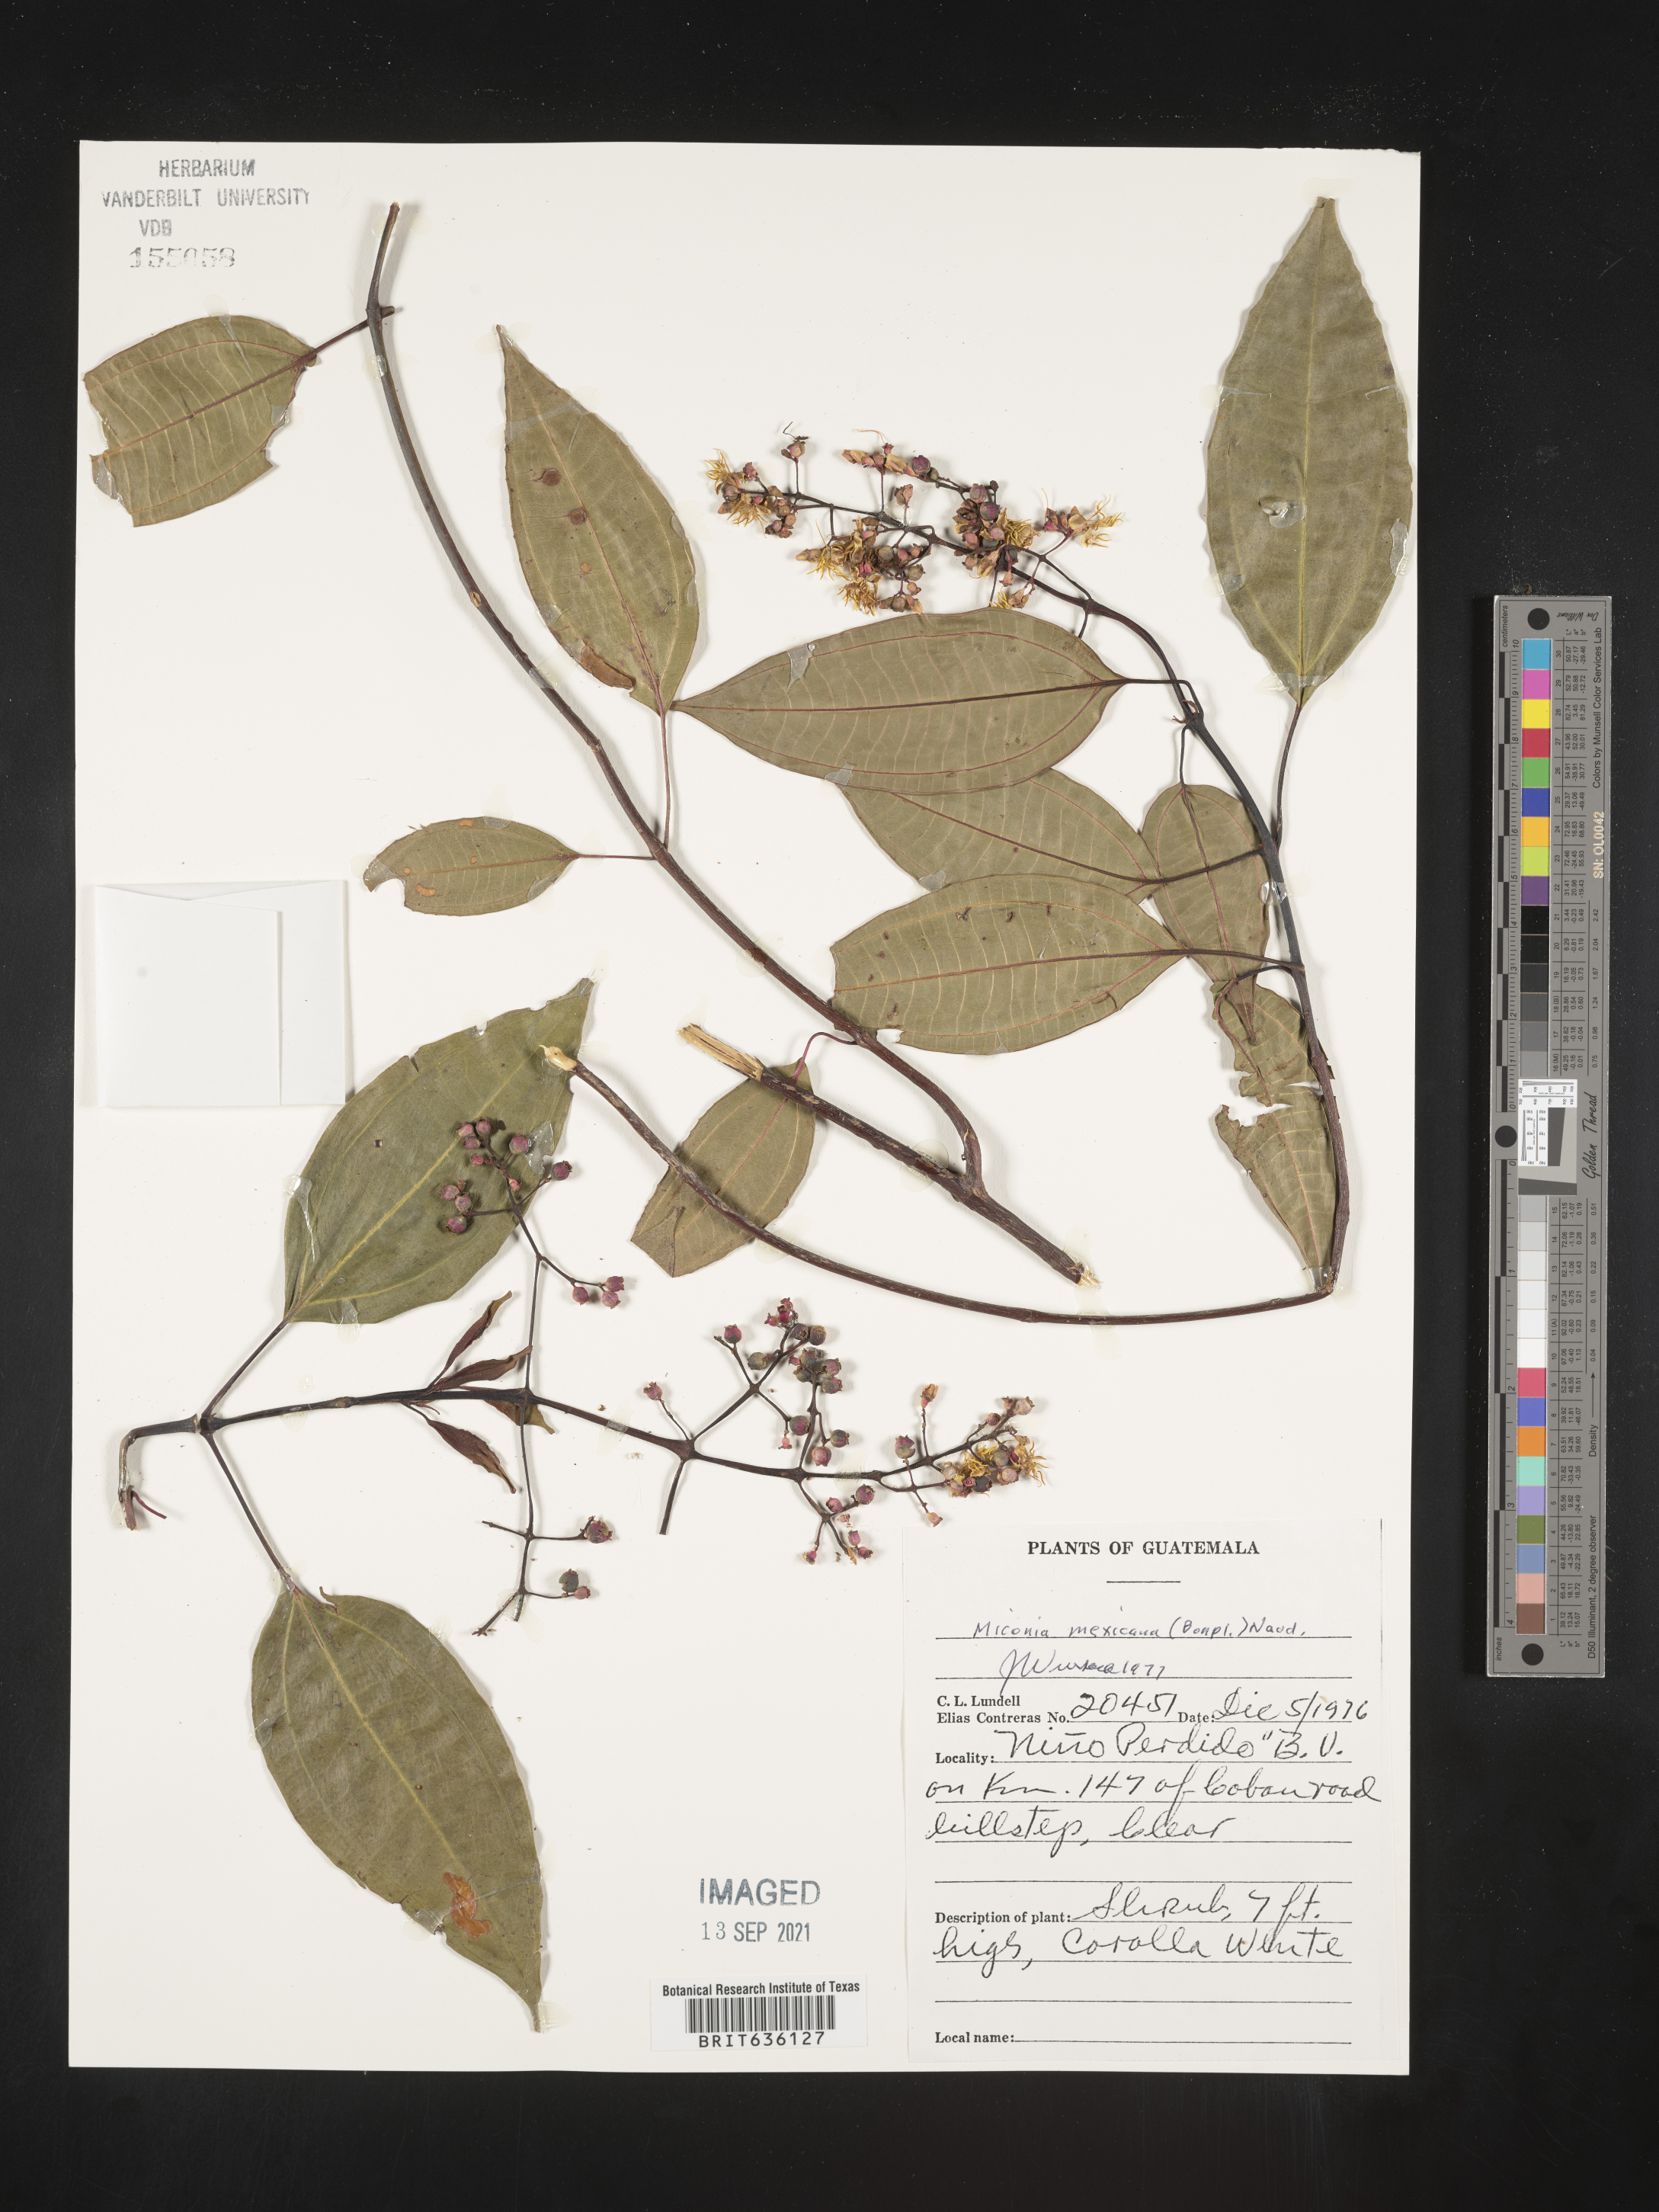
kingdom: Plantae
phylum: Tracheophyta
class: Magnoliopsida
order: Myrtales
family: Melastomataceae
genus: Miconia
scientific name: Miconia
